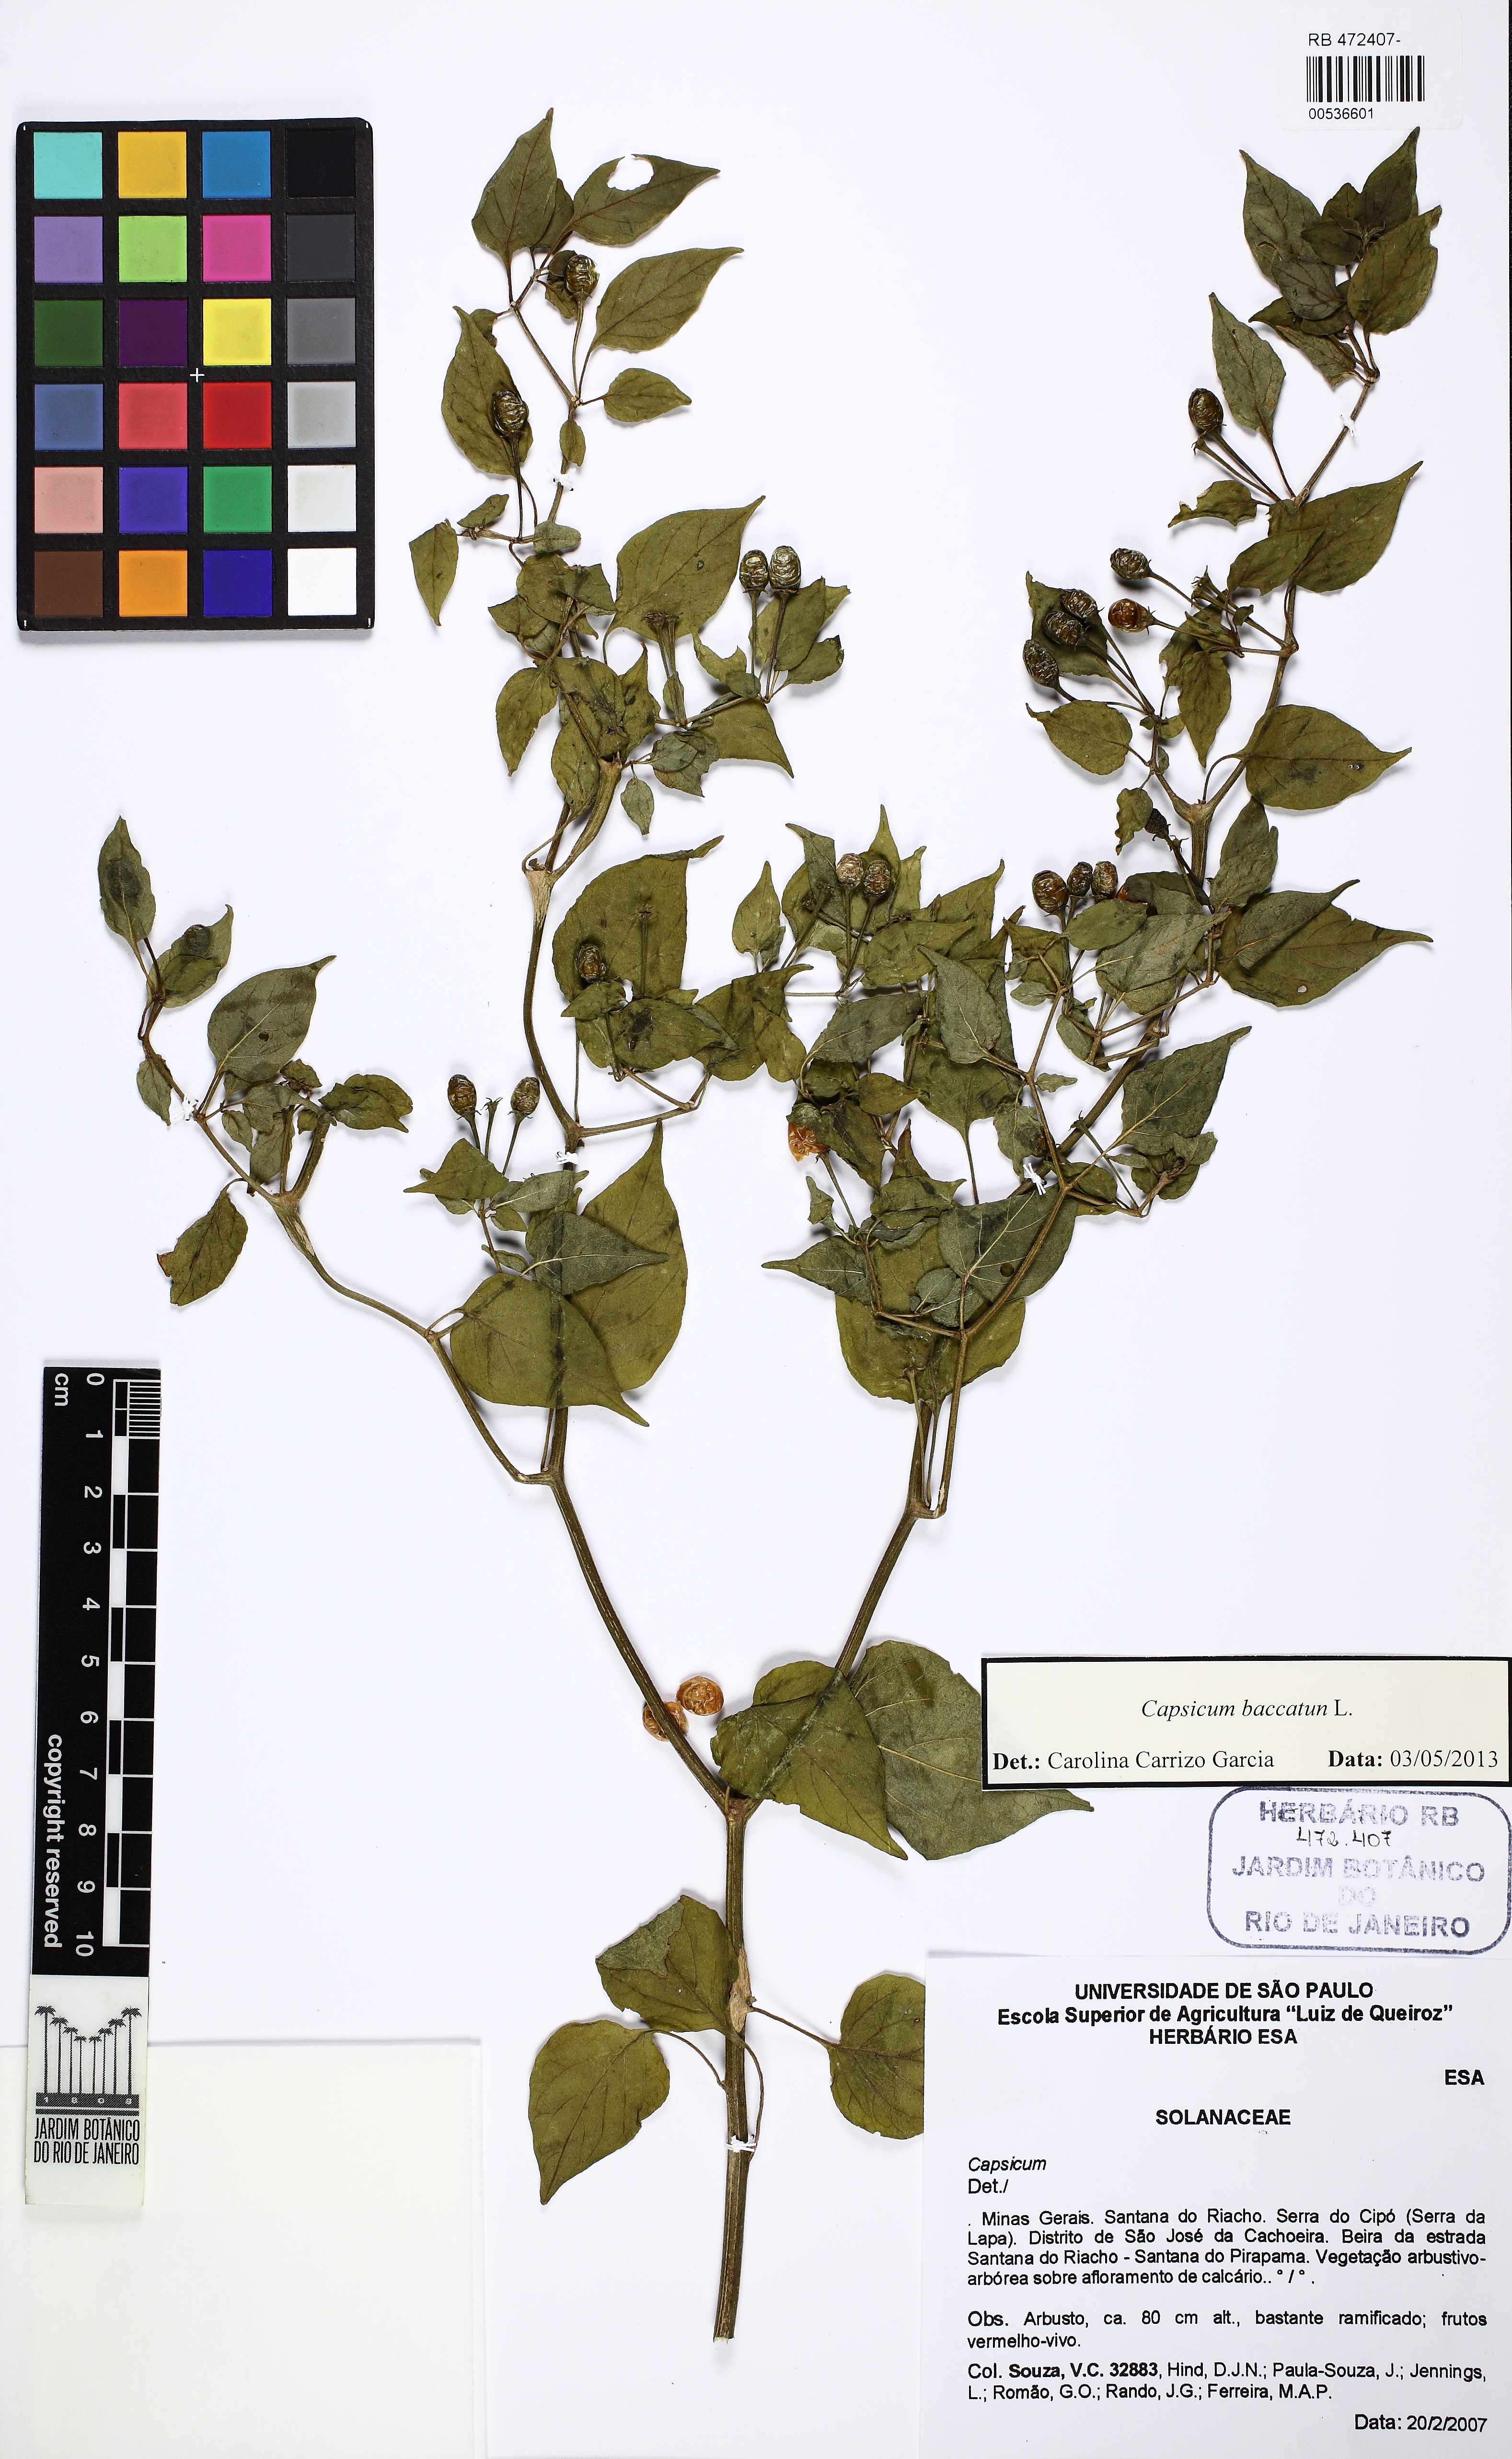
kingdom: Plantae
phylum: Tracheophyta
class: Magnoliopsida
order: Solanales
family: Solanaceae
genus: Capsicum
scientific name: Capsicum baccatum
